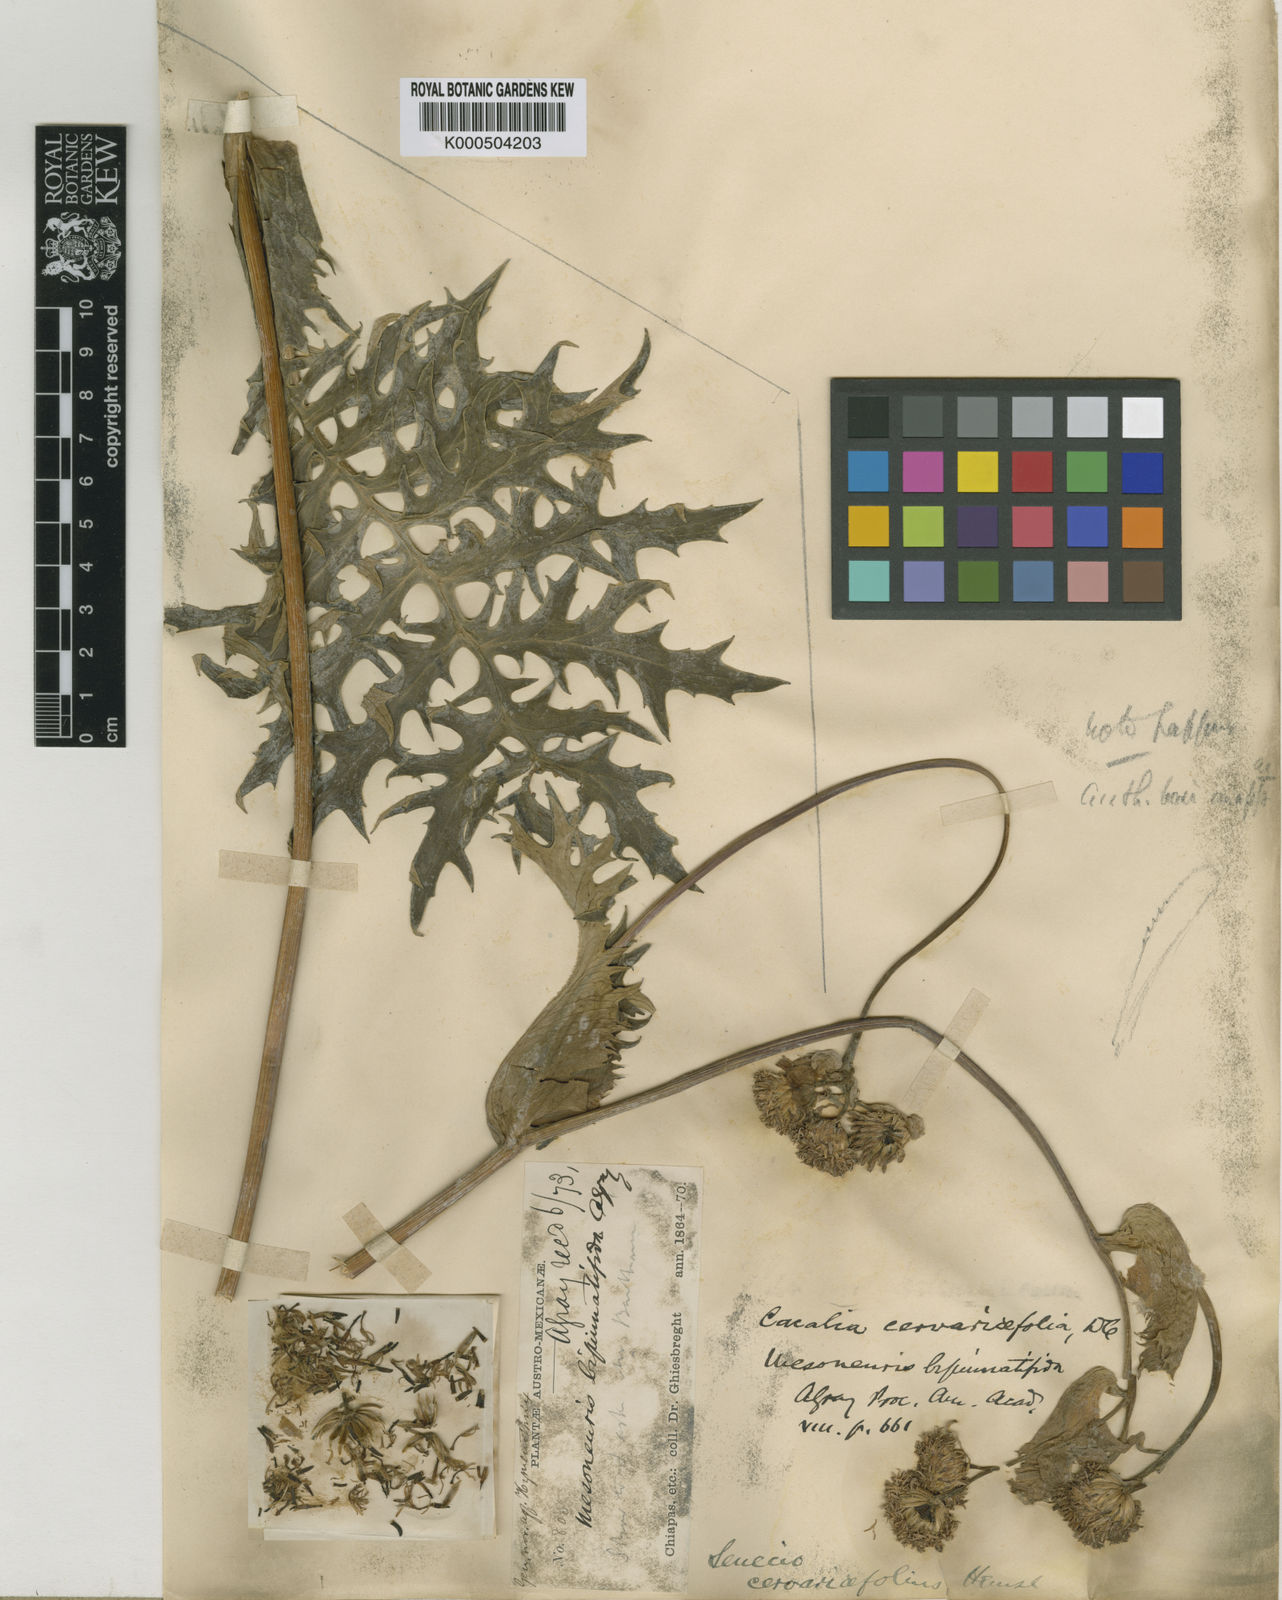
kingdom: Plantae
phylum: Tracheophyta
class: Magnoliopsida
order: Asterales
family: Asteraceae
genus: Psacalium
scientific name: Psacalium cirsiifolium
